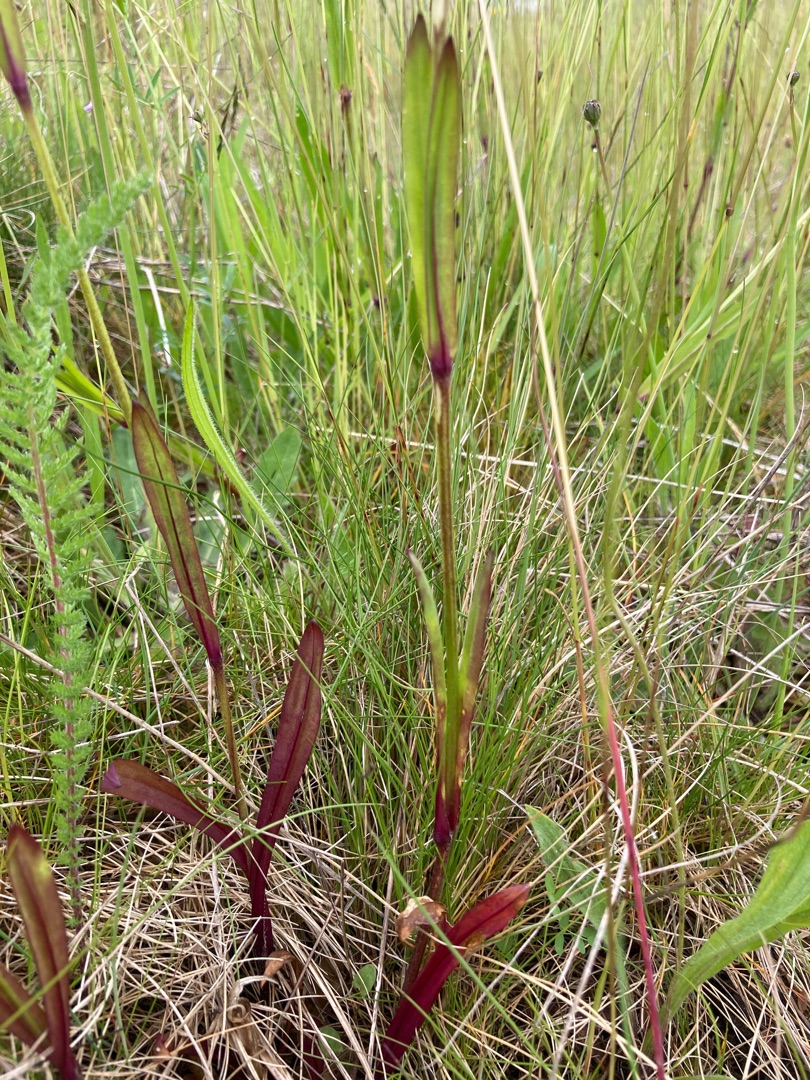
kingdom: Plantae
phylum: Tracheophyta
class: Magnoliopsida
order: Caryophyllales
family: Caryophyllaceae
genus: Silene
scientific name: Silene flos-cuculi
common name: Trævlekrone
